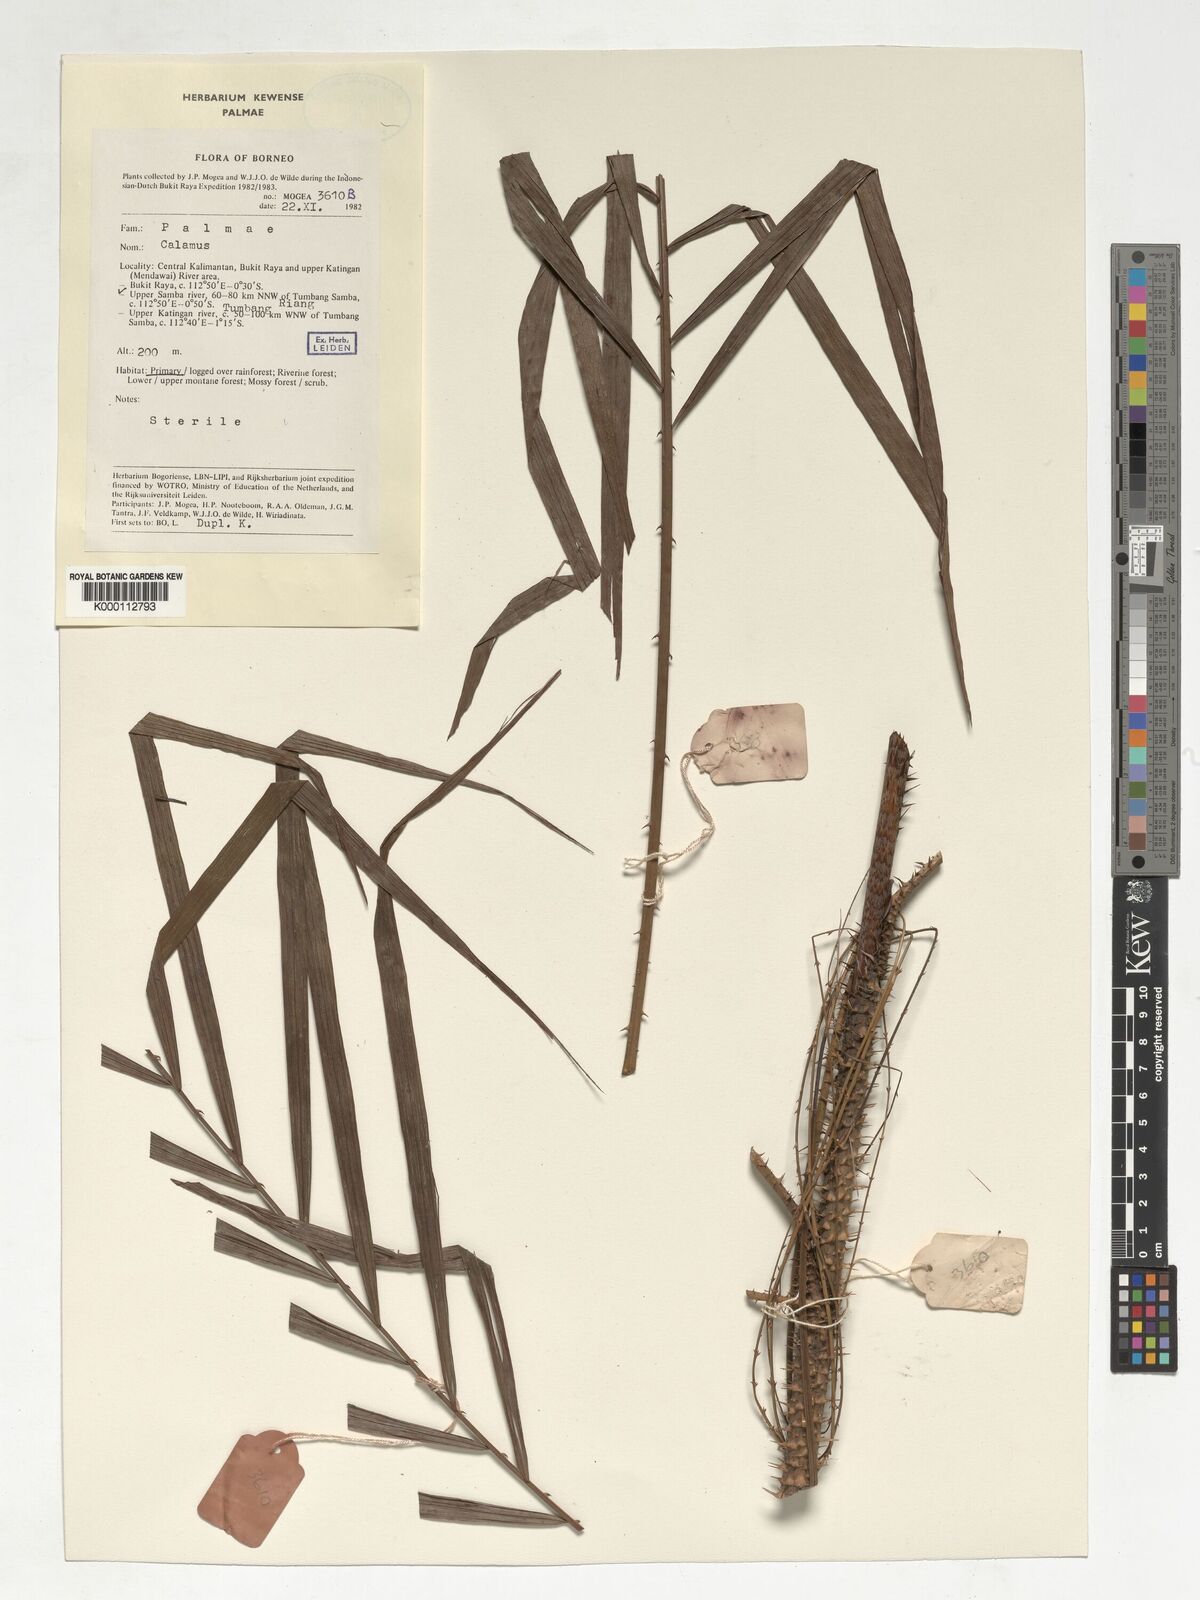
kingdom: Plantae
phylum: Tracheophyta
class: Liliopsida
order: Arecales
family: Arecaceae
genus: Calamus
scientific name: Calamus muricatus
